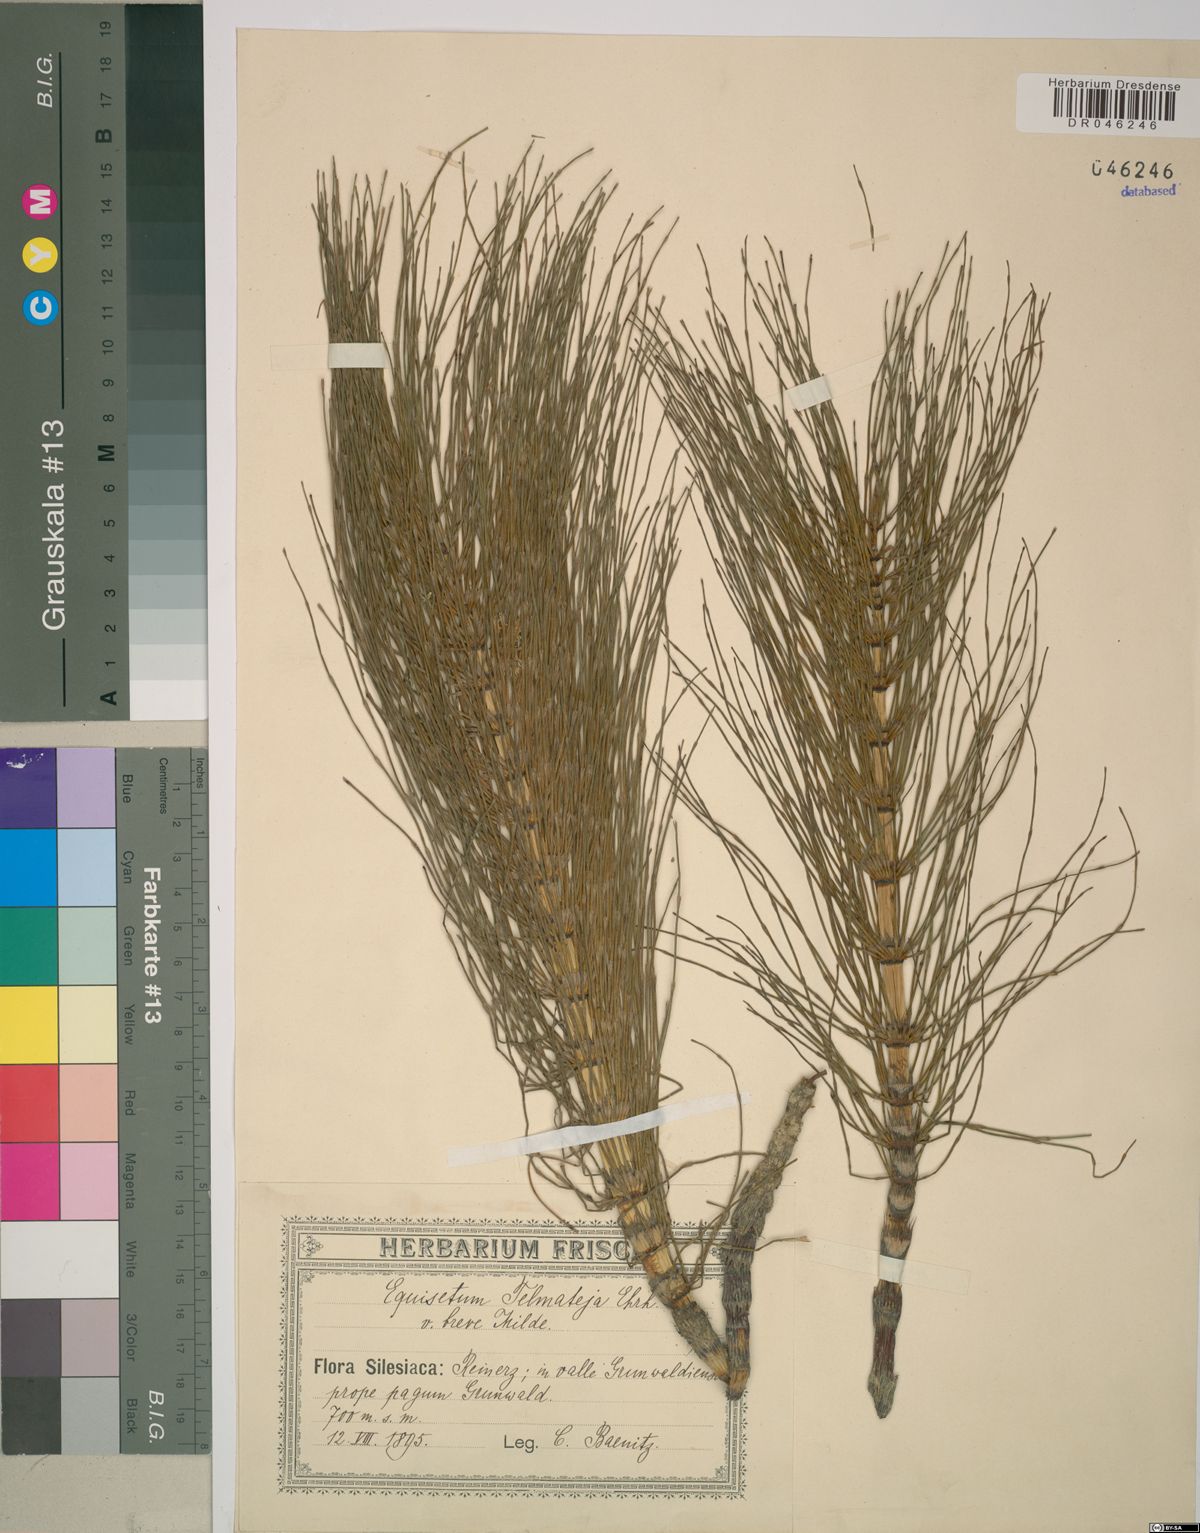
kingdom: Plantae
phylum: Tracheophyta
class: Polypodiopsida
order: Equisetales
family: Equisetaceae
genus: Equisetum
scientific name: Equisetum telmateia
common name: Great horsetail
